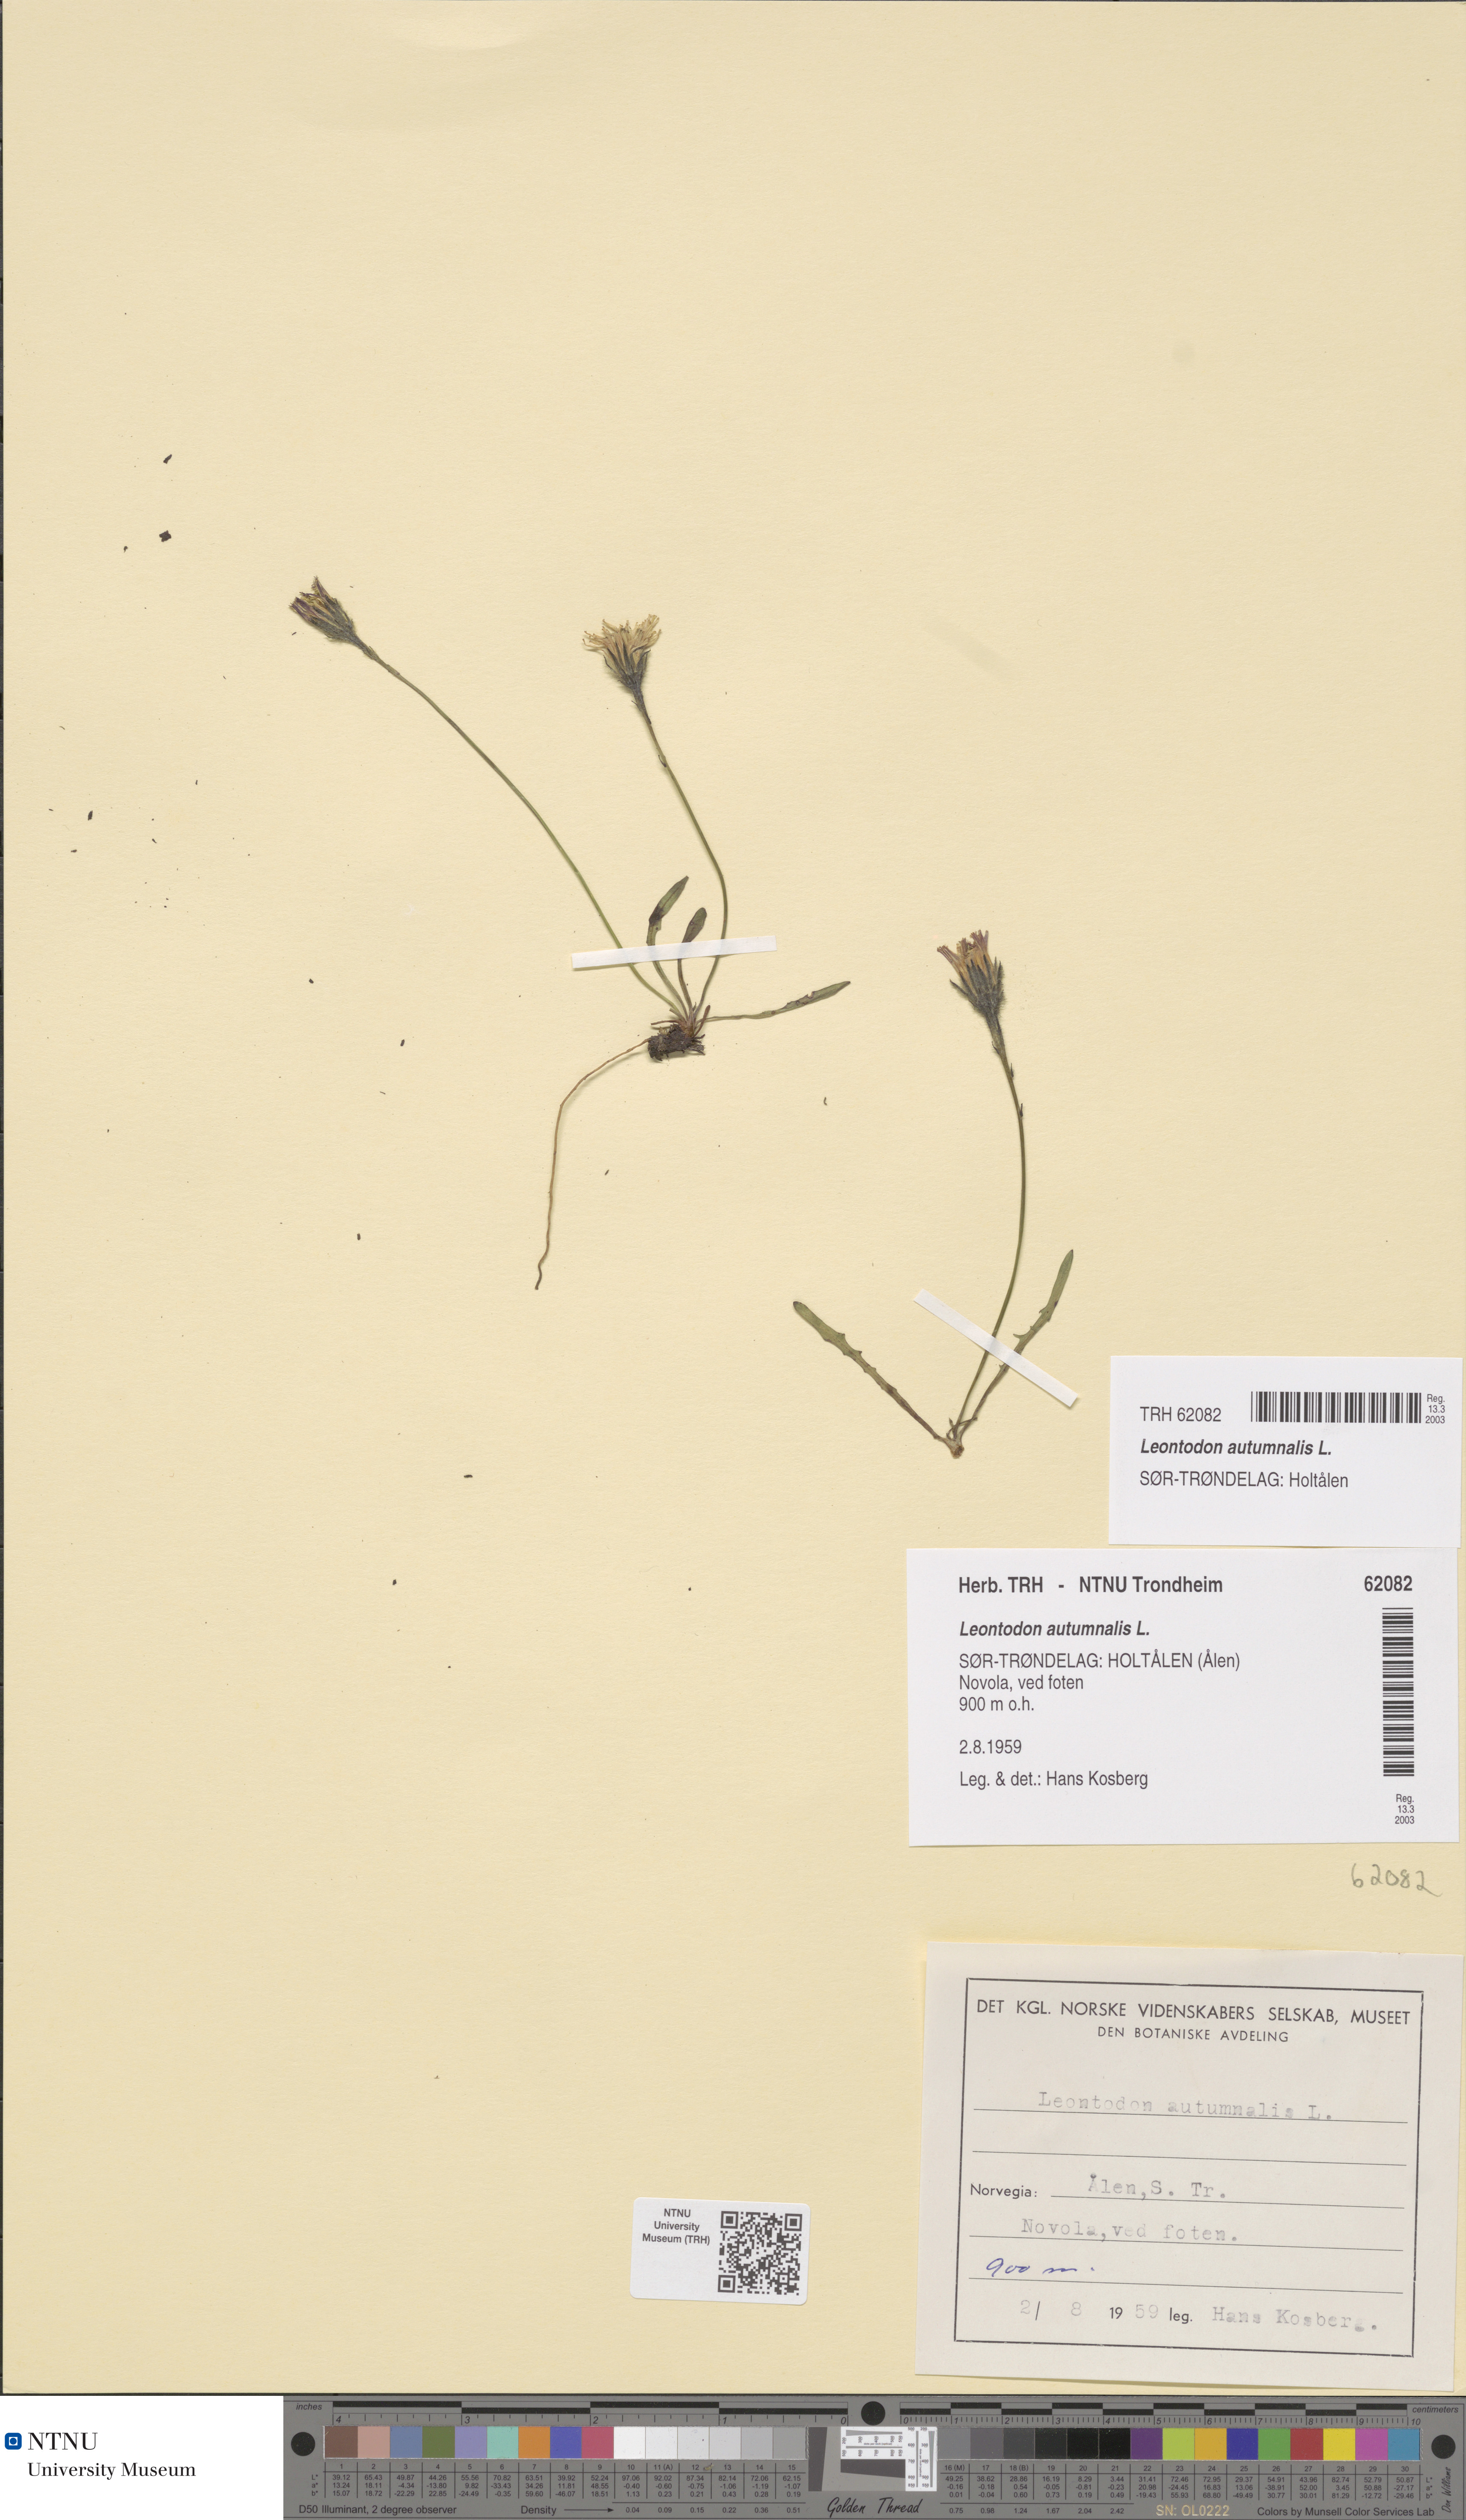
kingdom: Plantae
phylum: Tracheophyta
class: Magnoliopsida
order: Asterales
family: Asteraceae
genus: Scorzoneroides
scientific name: Scorzoneroides autumnalis
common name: Autumn hawkbit
